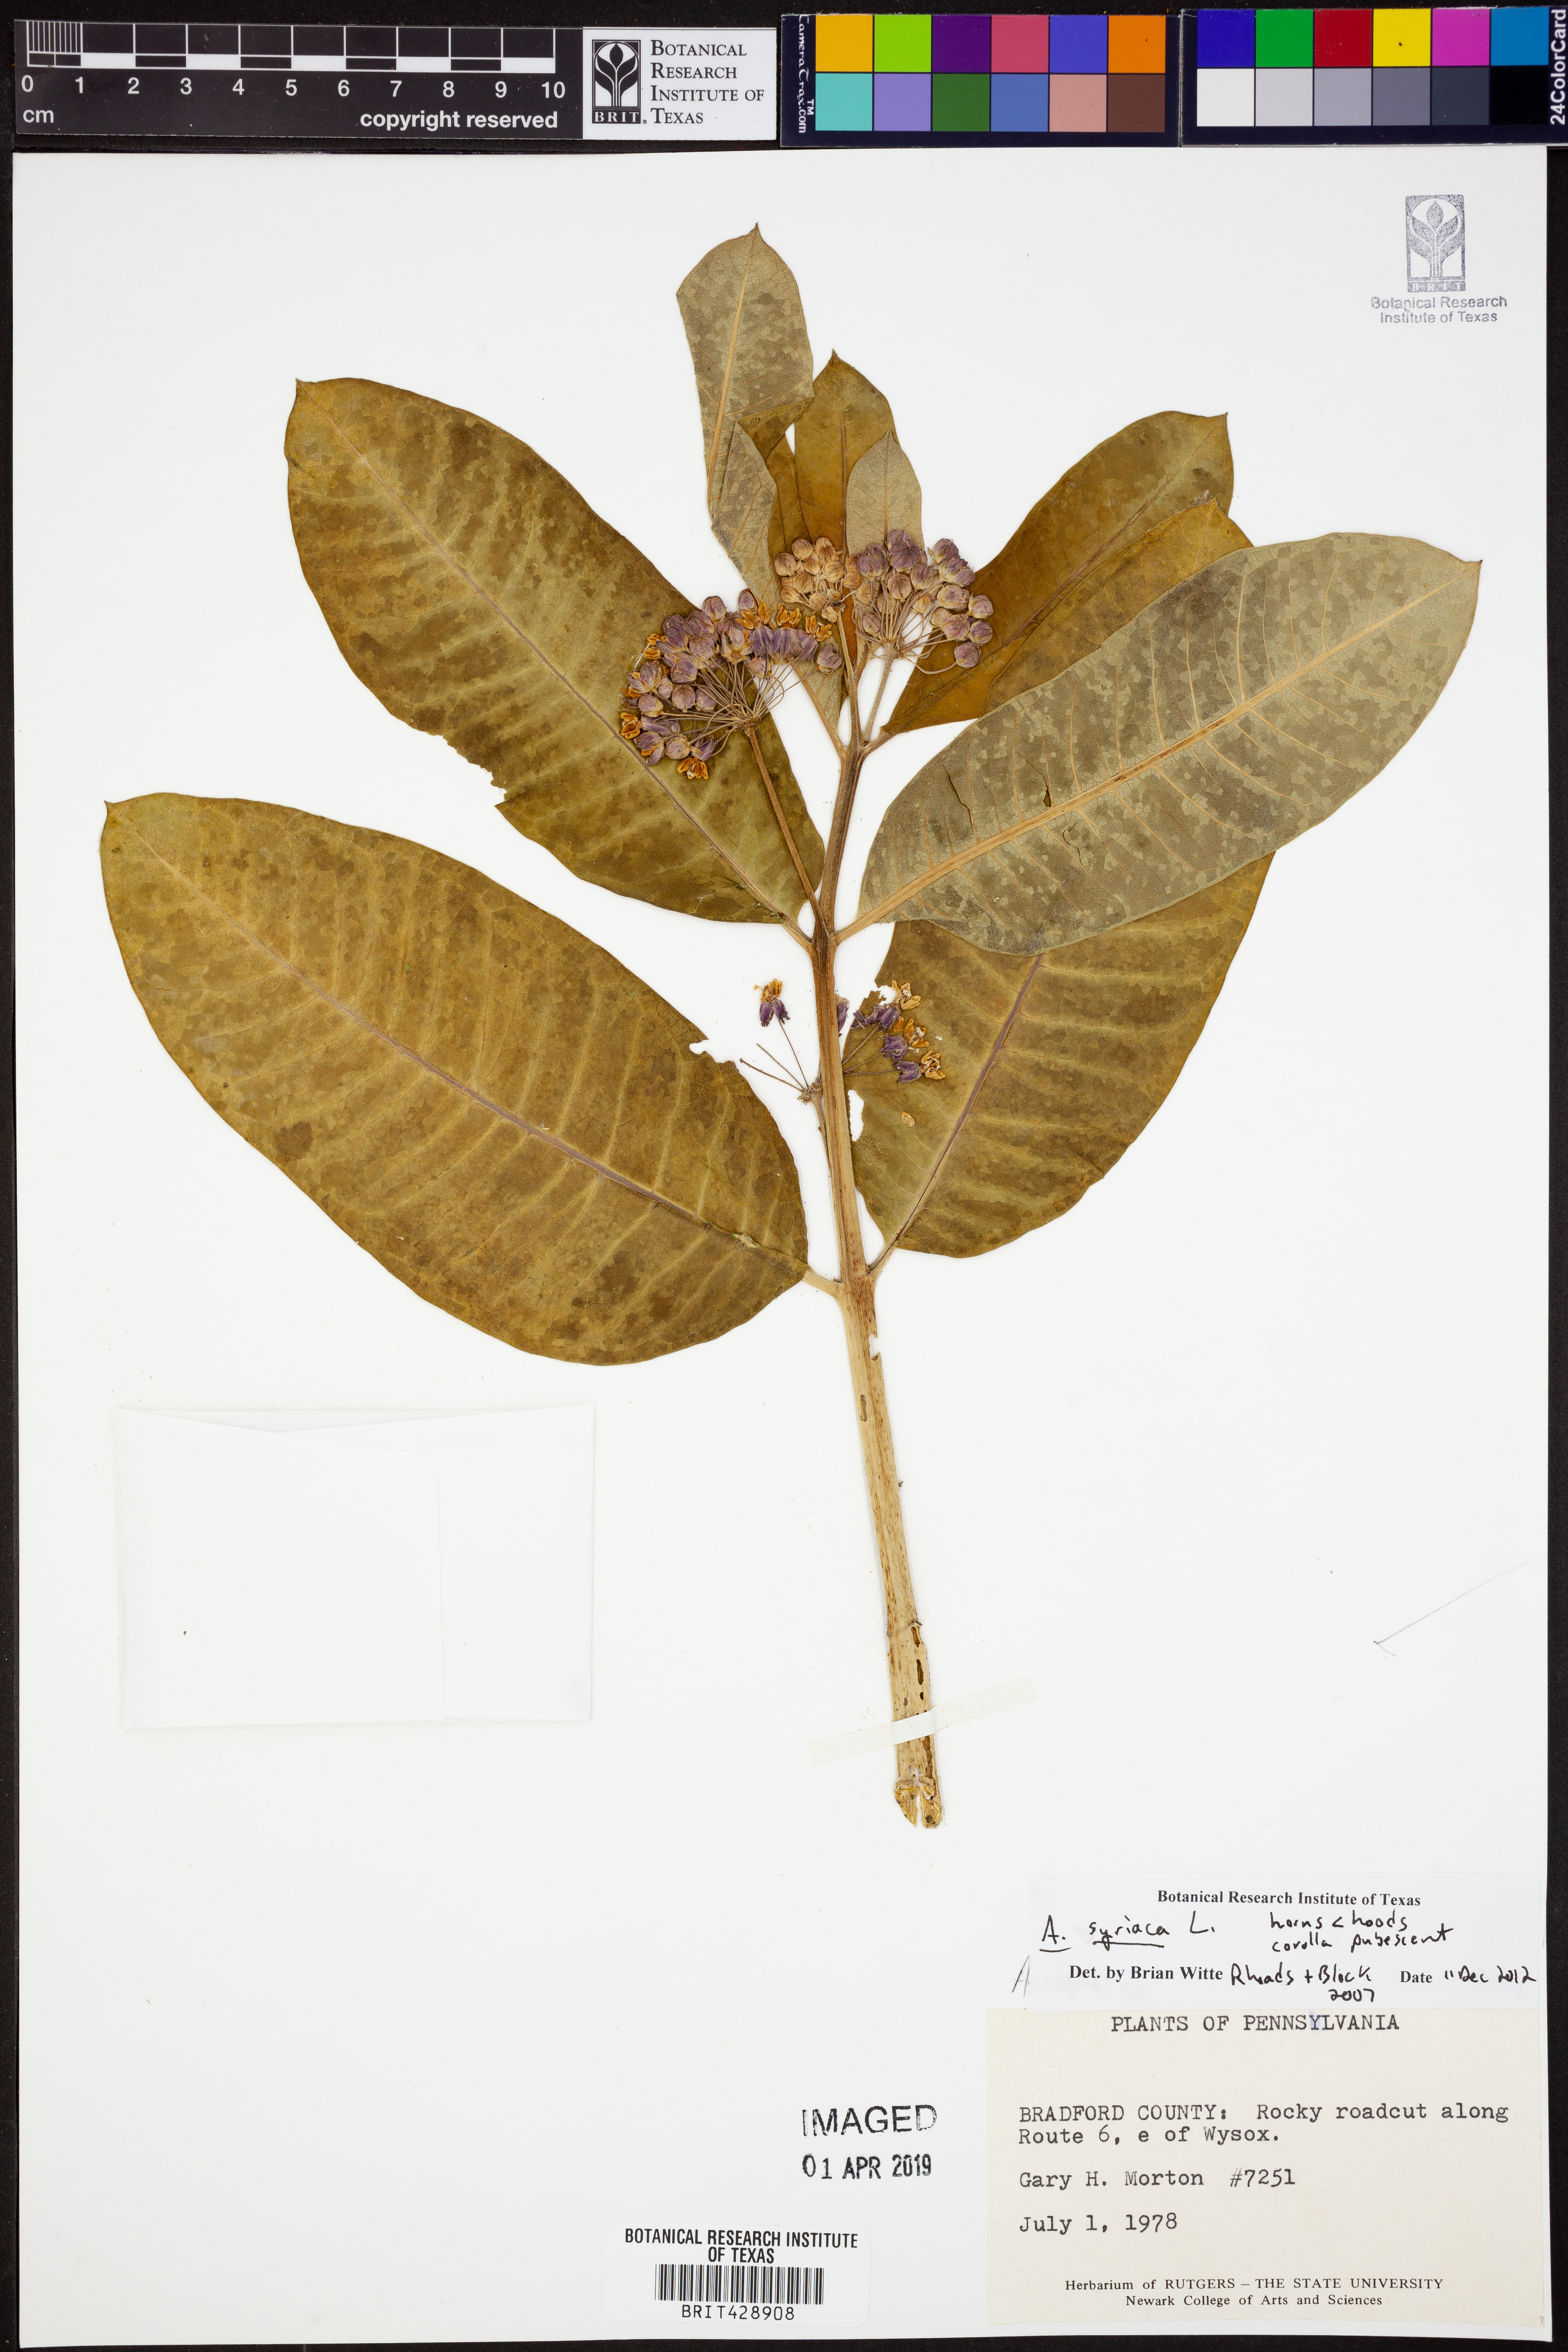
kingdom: Plantae
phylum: Tracheophyta
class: Magnoliopsida
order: Gentianales
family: Apocynaceae
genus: Asclepias
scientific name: Asclepias syriaca
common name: Common milkweed
